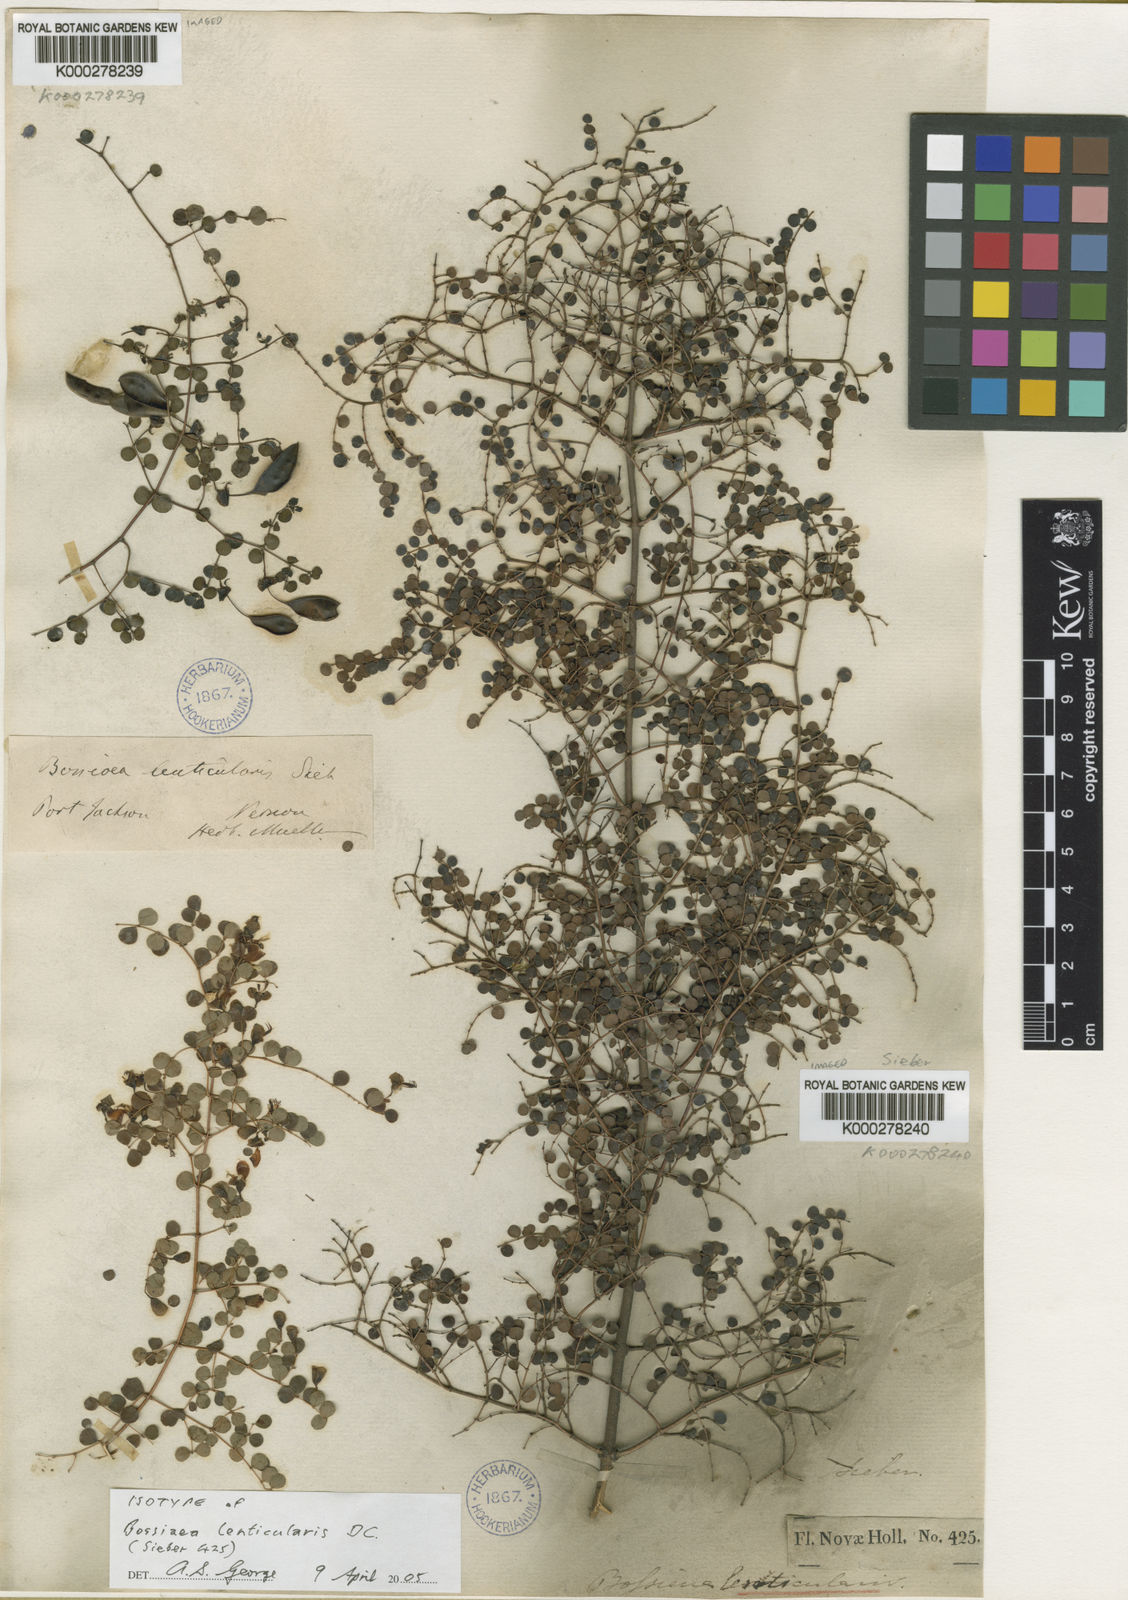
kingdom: Plantae
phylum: Tracheophyta
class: Magnoliopsida
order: Fabales
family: Fabaceae
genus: Bossiaea
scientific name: Bossiaea lenticularis
